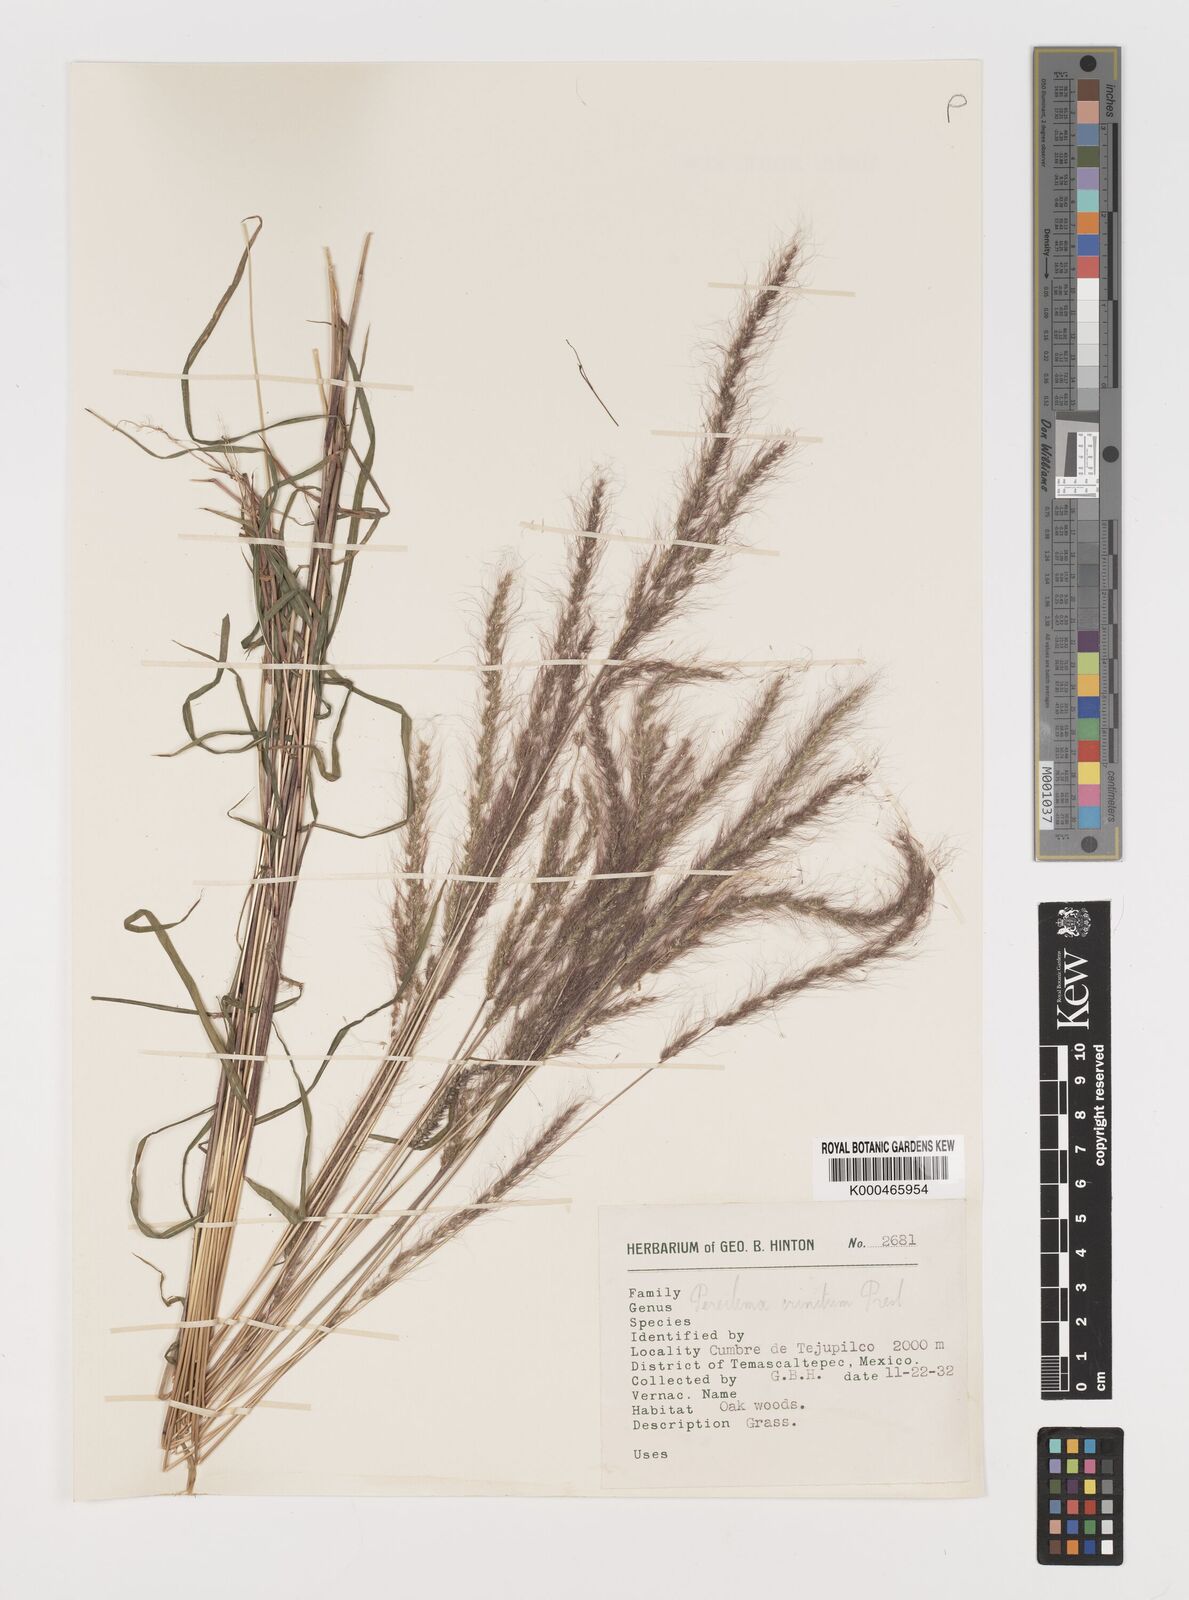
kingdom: Plantae
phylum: Tracheophyta
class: Liliopsida
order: Poales
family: Poaceae
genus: Muhlenbergia
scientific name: Muhlenbergia pereilema
